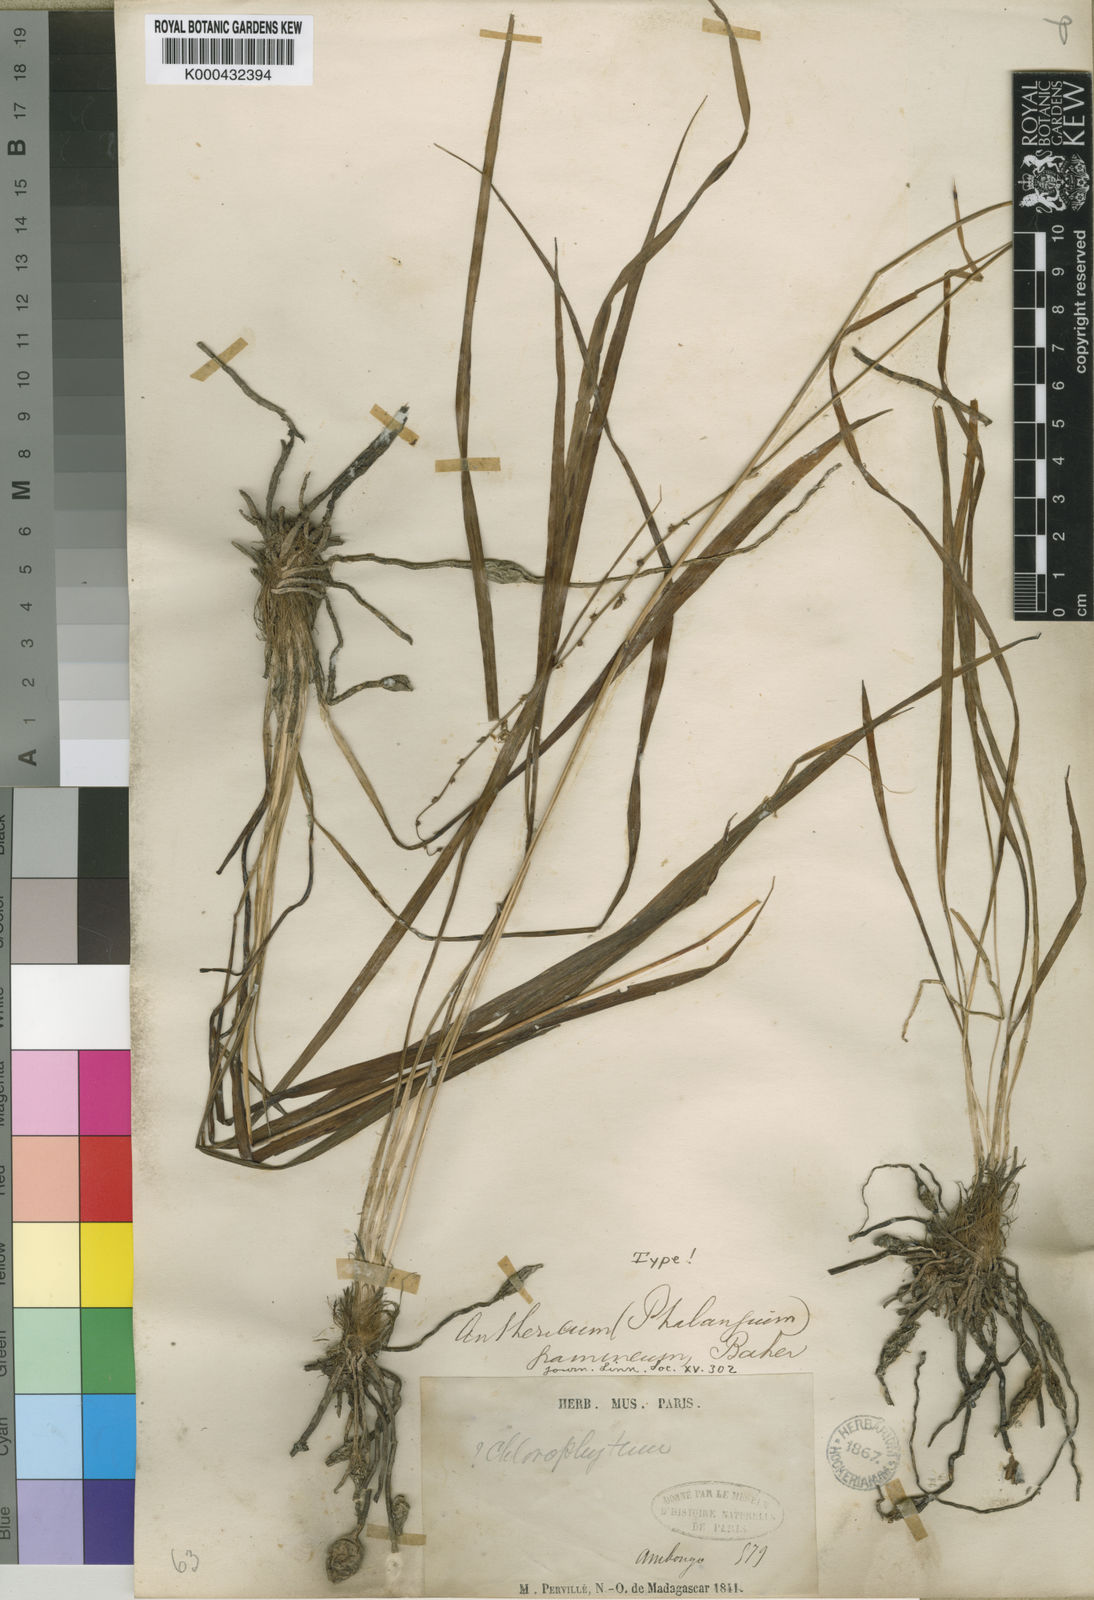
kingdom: Plantae
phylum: Tracheophyta
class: Liliopsida
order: Asparagales
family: Asparagaceae
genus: Chlorophytum
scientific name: Chlorophytum madagascariense
